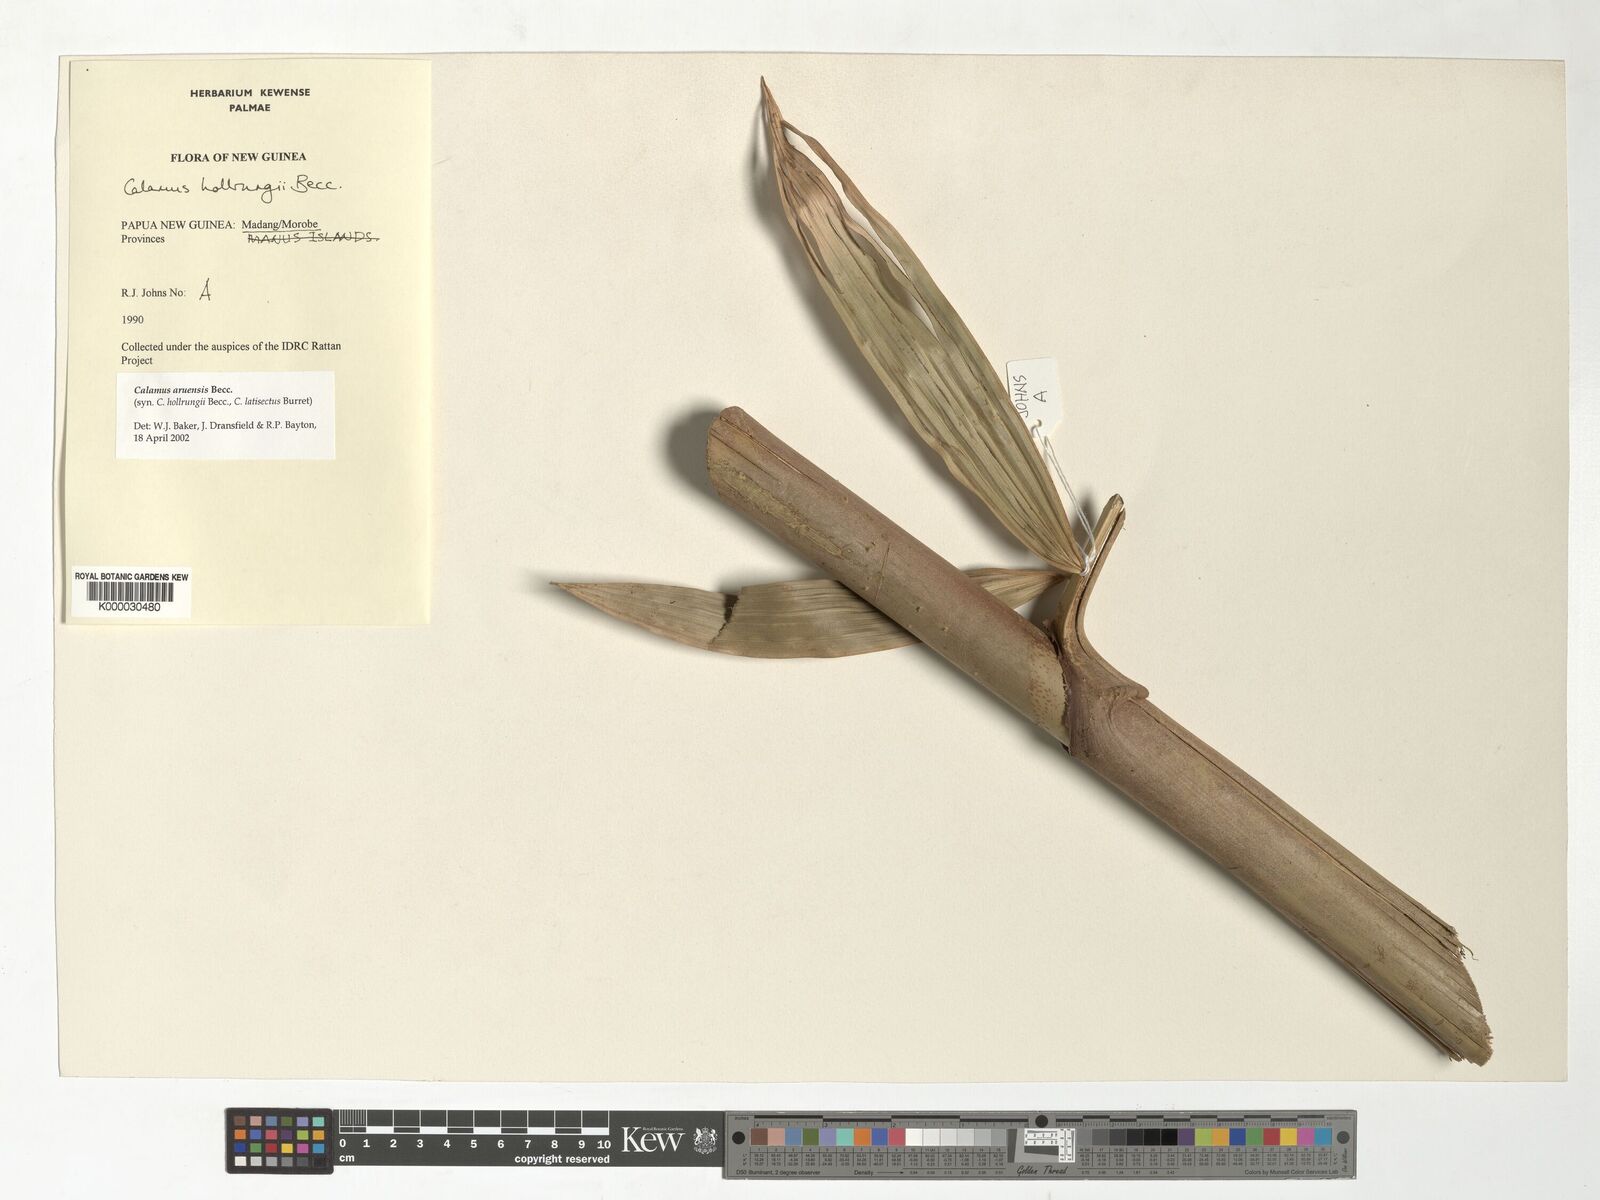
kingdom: Plantae
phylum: Tracheophyta
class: Liliopsida
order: Arecales
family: Arecaceae
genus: Calamus
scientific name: Calamus aruensis
